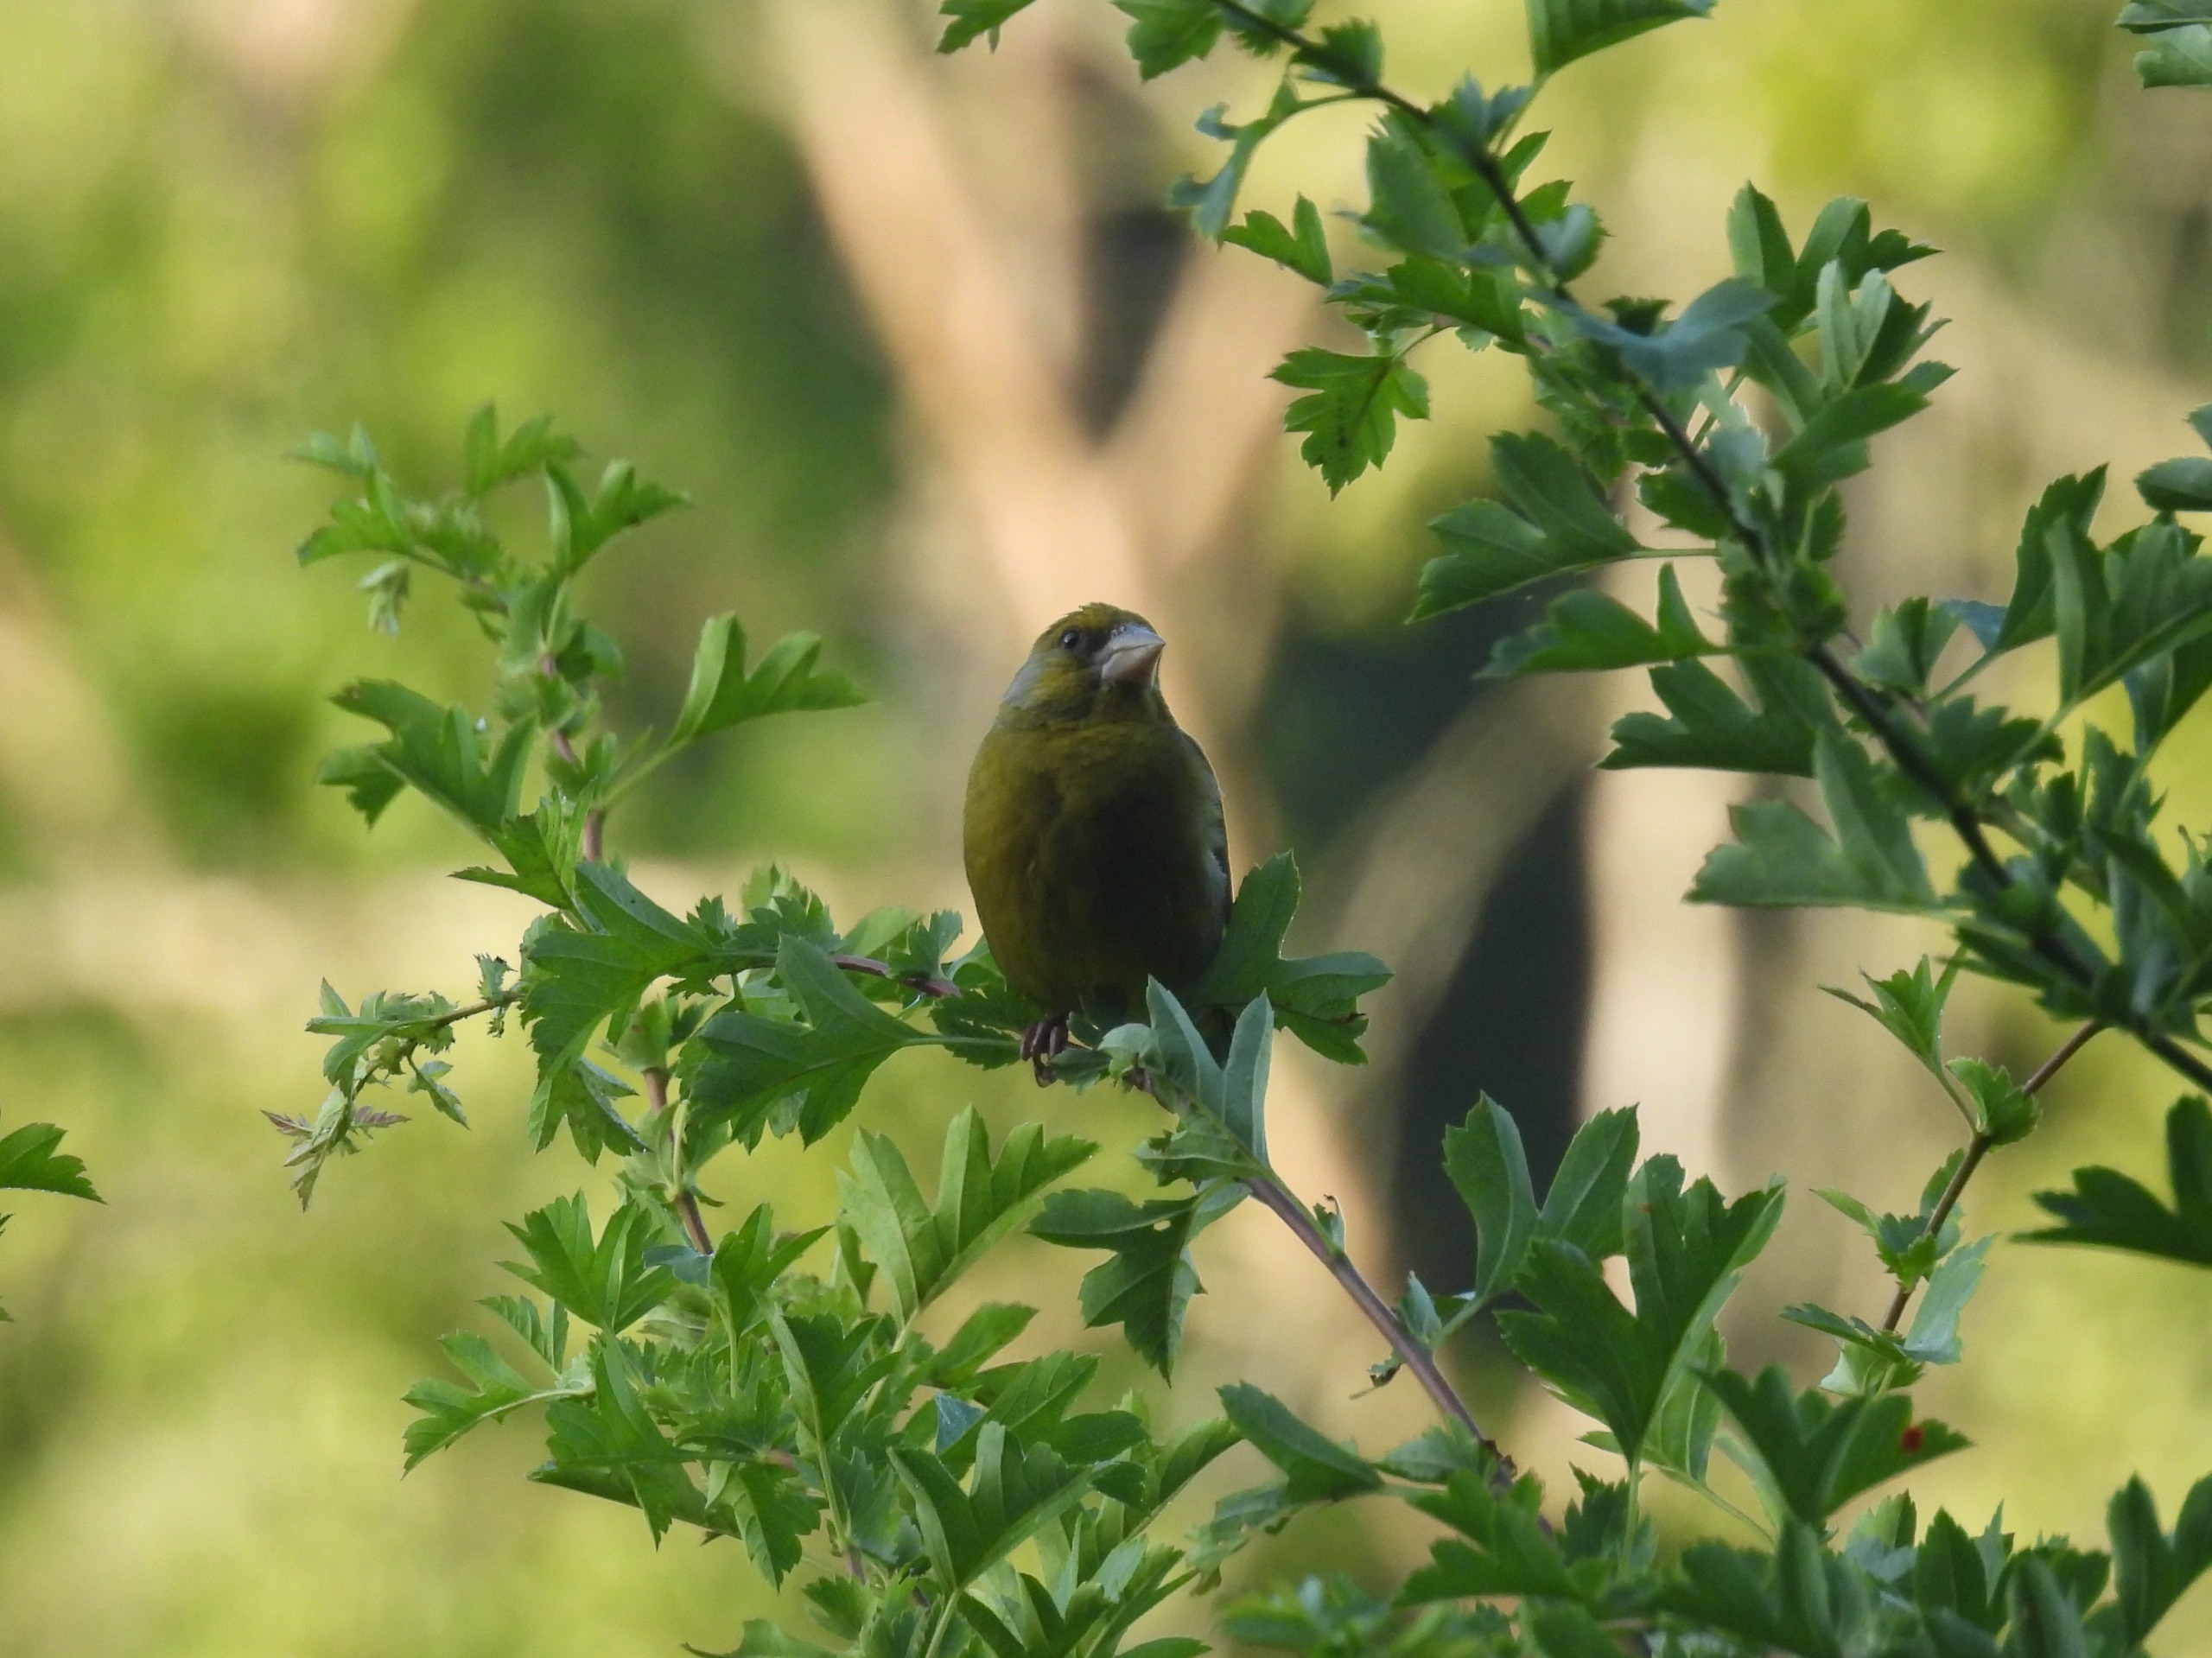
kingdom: Plantae
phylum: Tracheophyta
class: Liliopsida
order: Poales
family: Poaceae
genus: Chloris
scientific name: Chloris chloris
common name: Grønirisk
